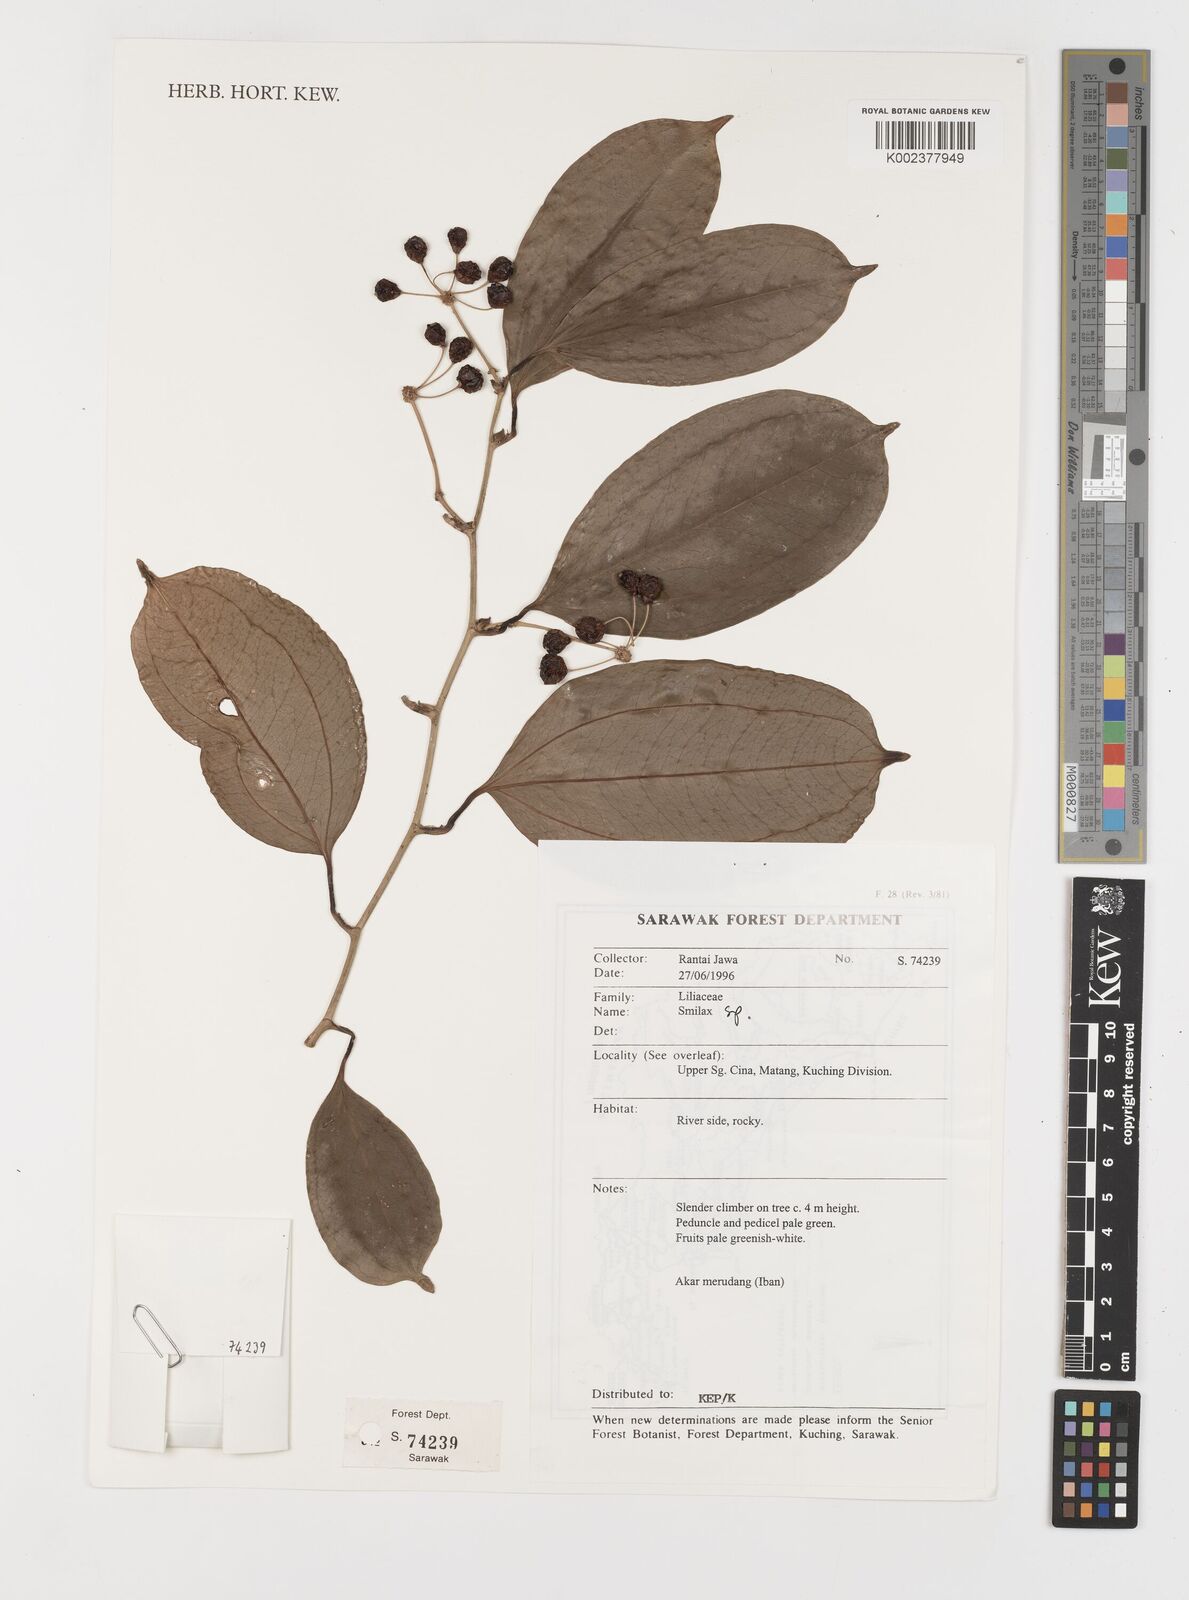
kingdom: Plantae
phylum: Tracheophyta
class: Liliopsida
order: Liliales
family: Smilacaceae
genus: Smilax
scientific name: Smilax
